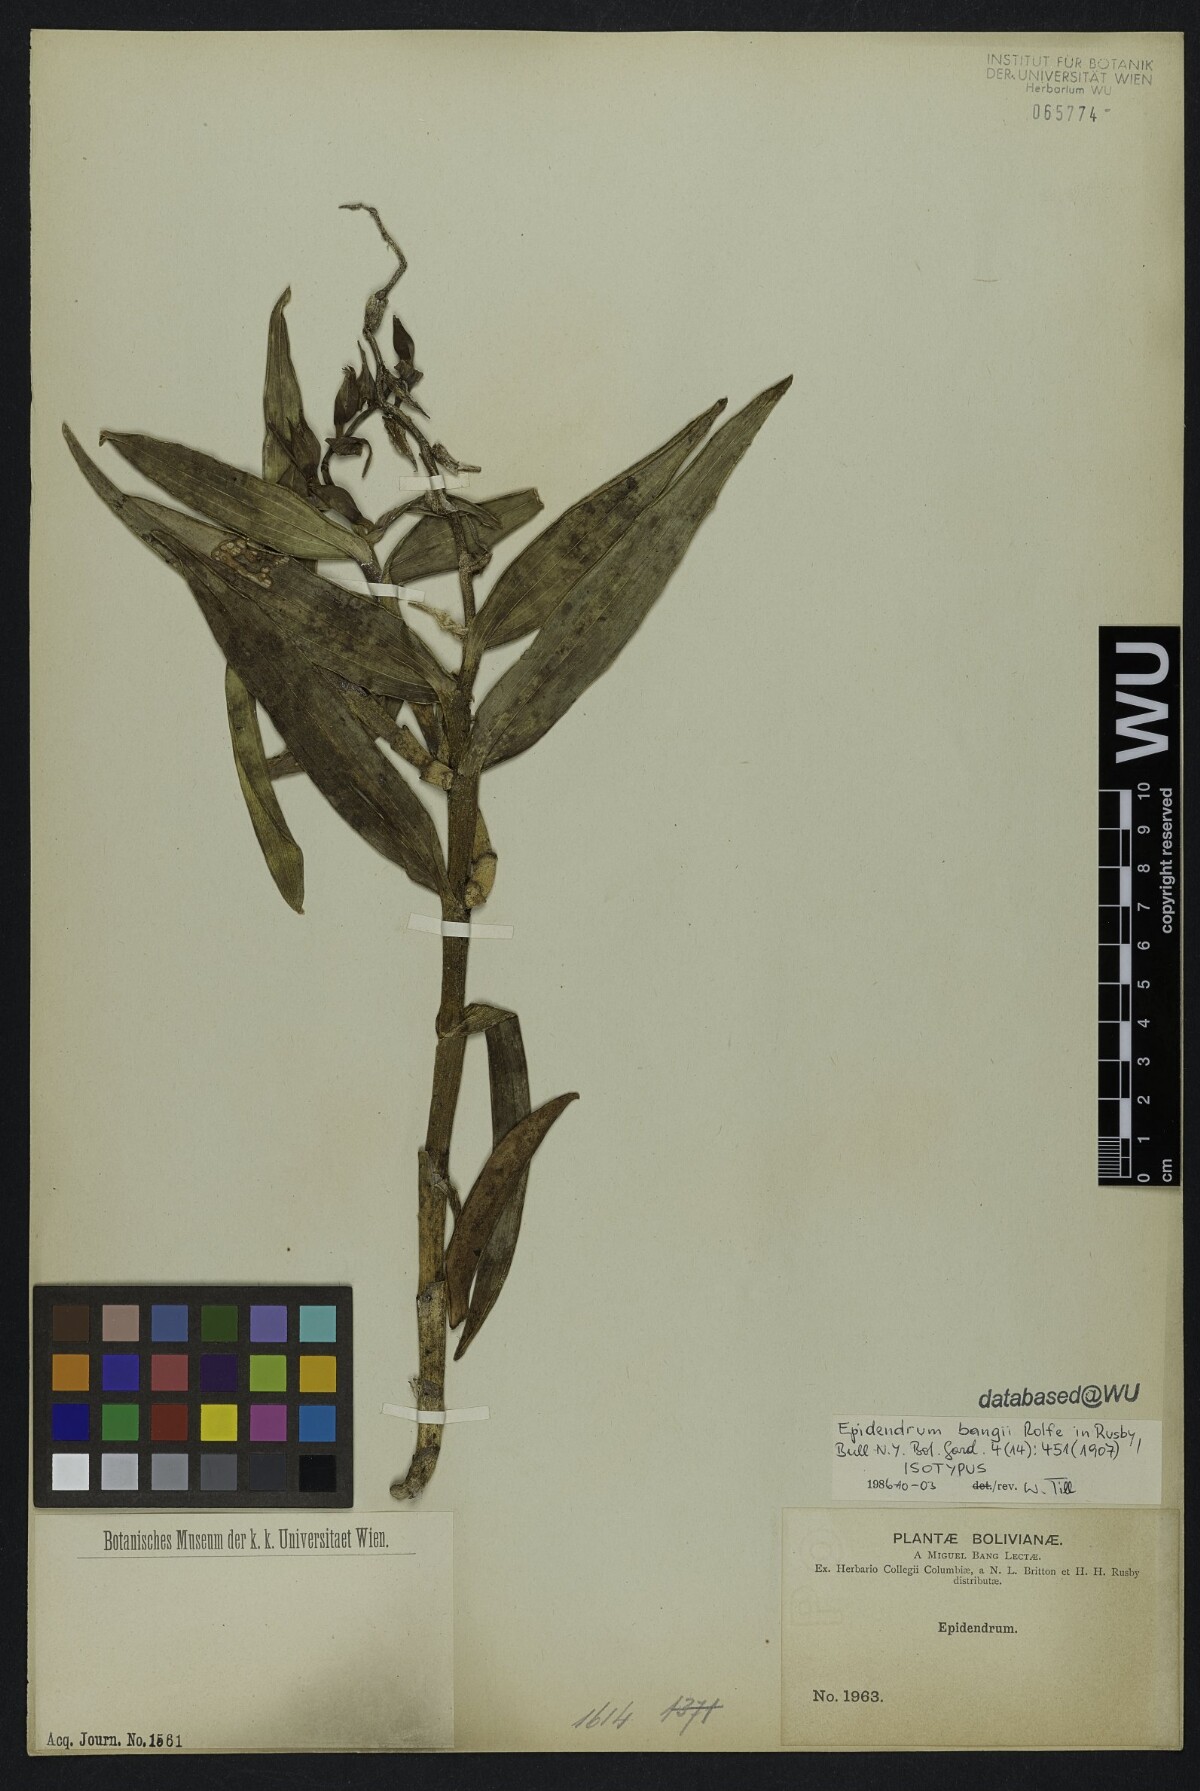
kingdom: Plantae
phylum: Tracheophyta
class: Liliopsida
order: Asparagales
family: Orchidaceae
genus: Epidendrum
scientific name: Epidendrum chondrochilum
